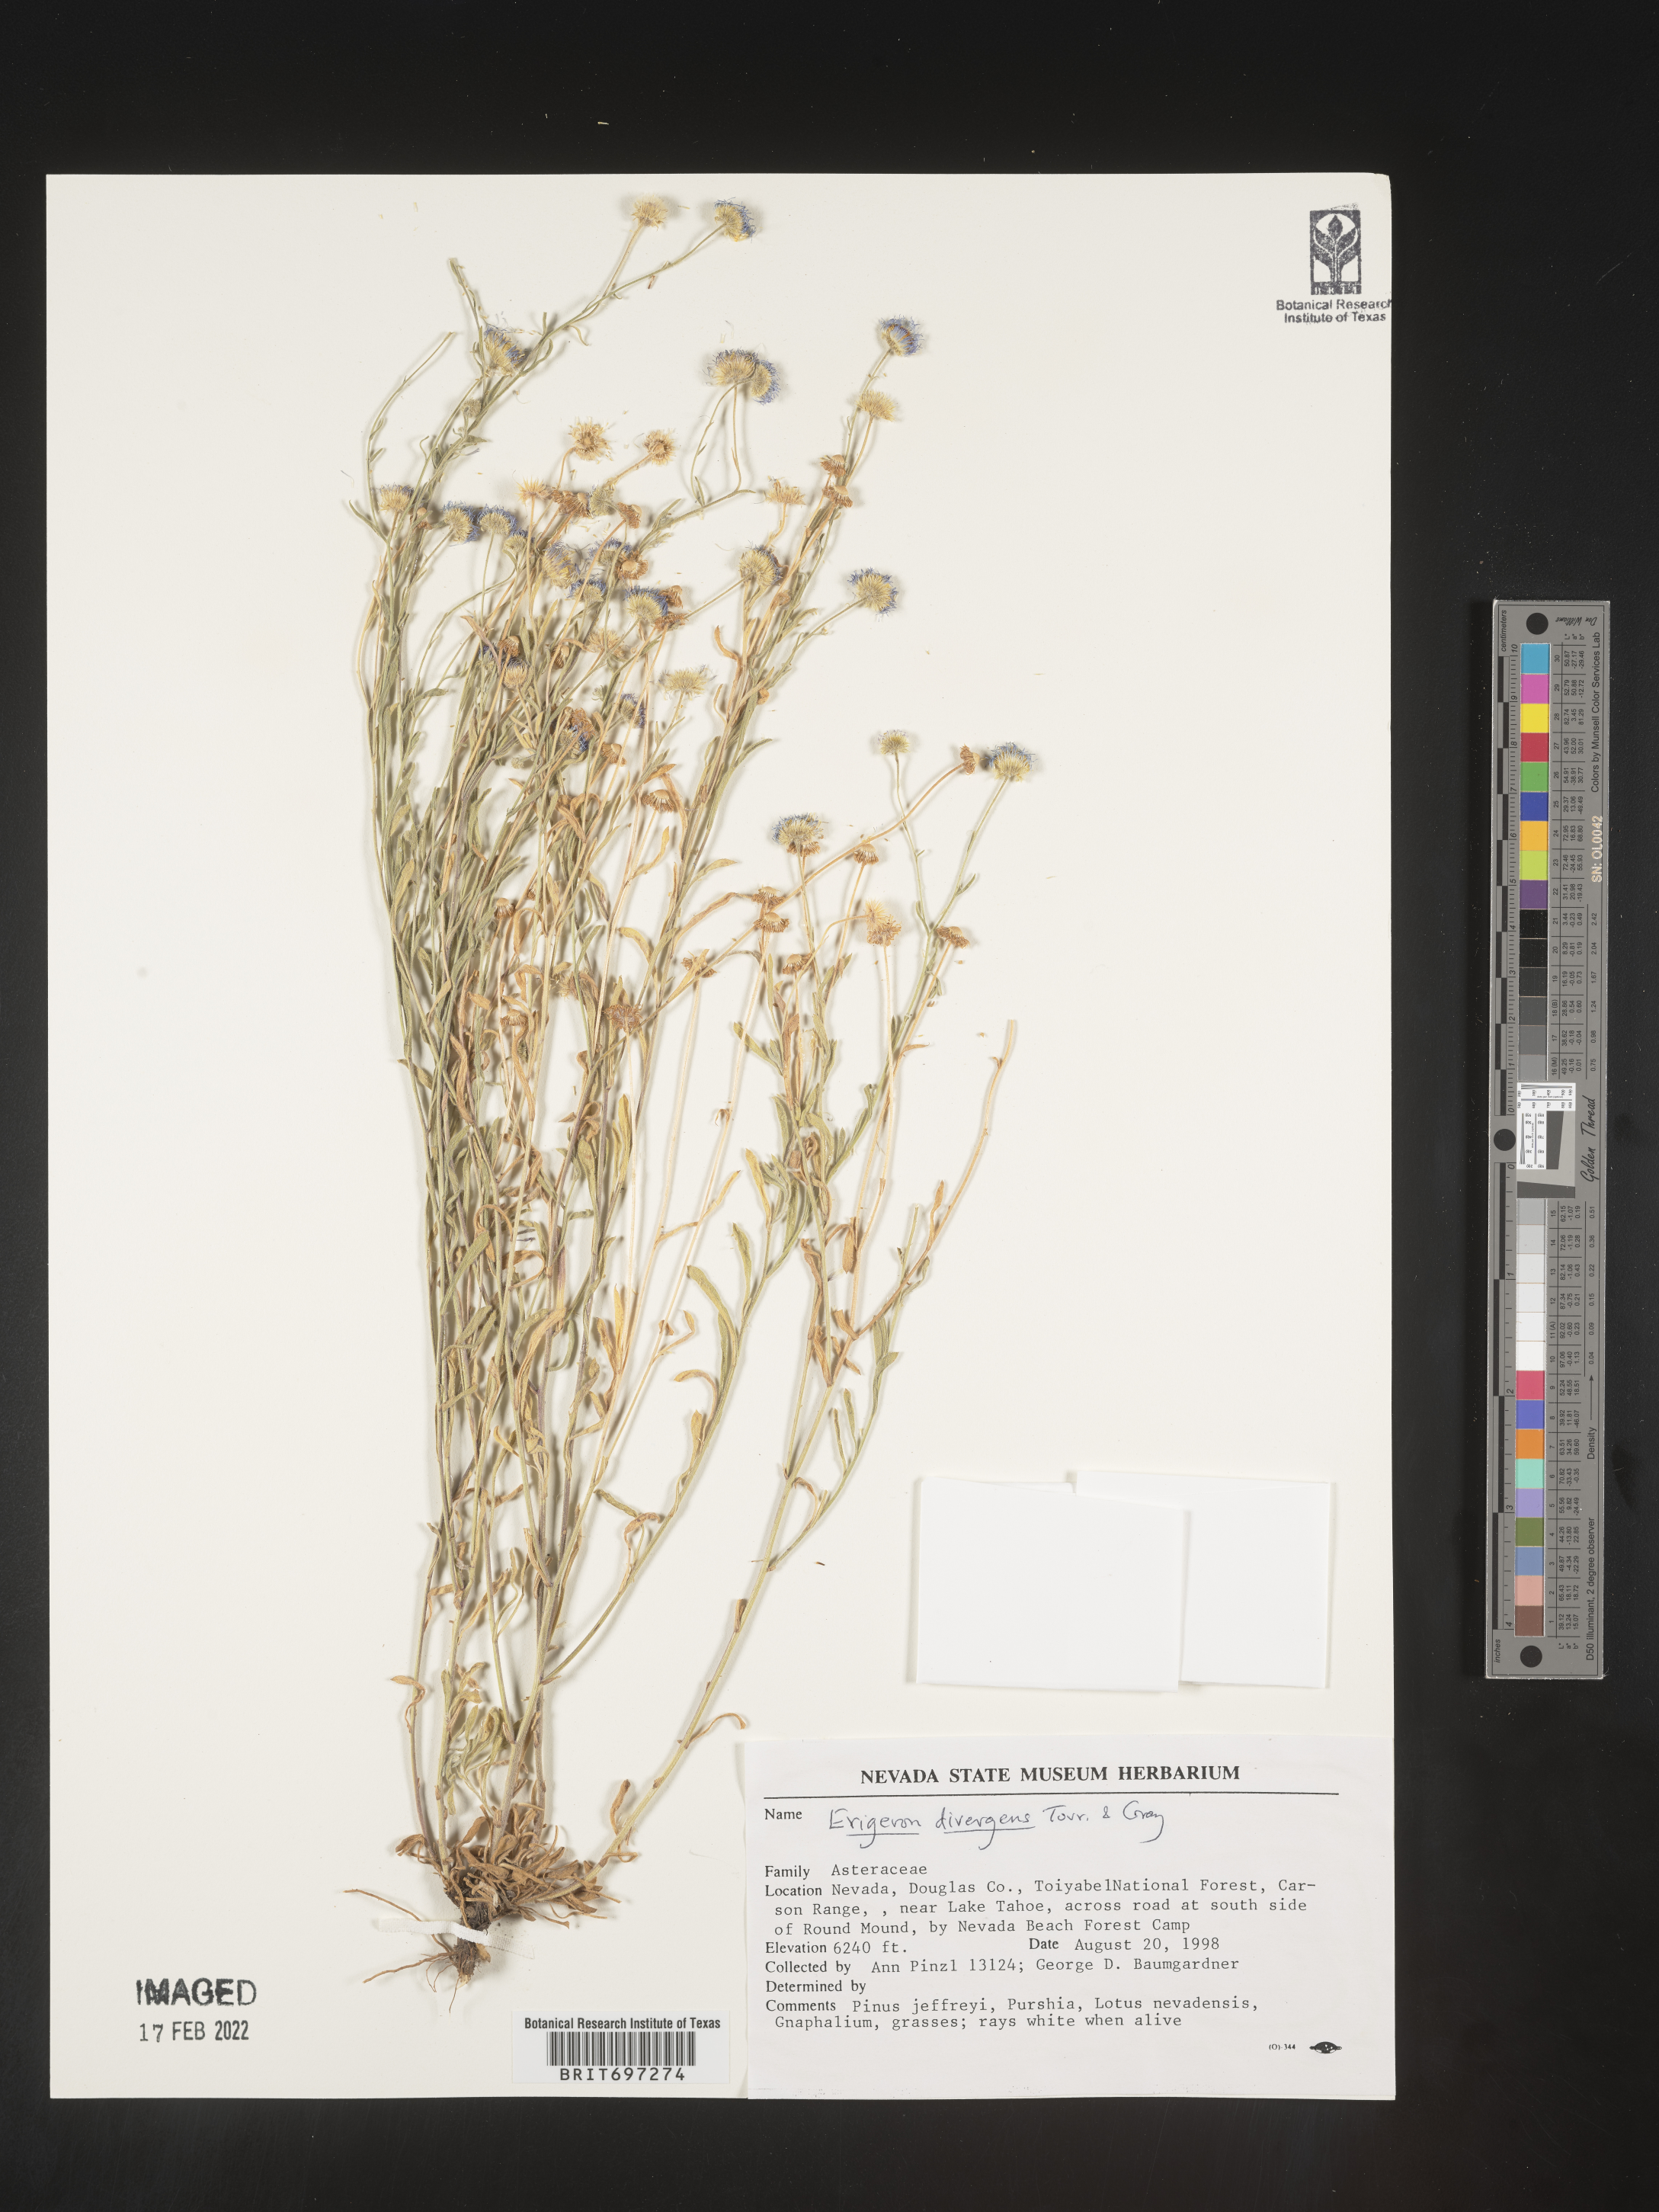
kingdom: Plantae
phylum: Tracheophyta
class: Magnoliopsida
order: Asterales
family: Asteraceae
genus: Erigeron
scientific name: Erigeron divergens
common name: Diffuse fleabane
